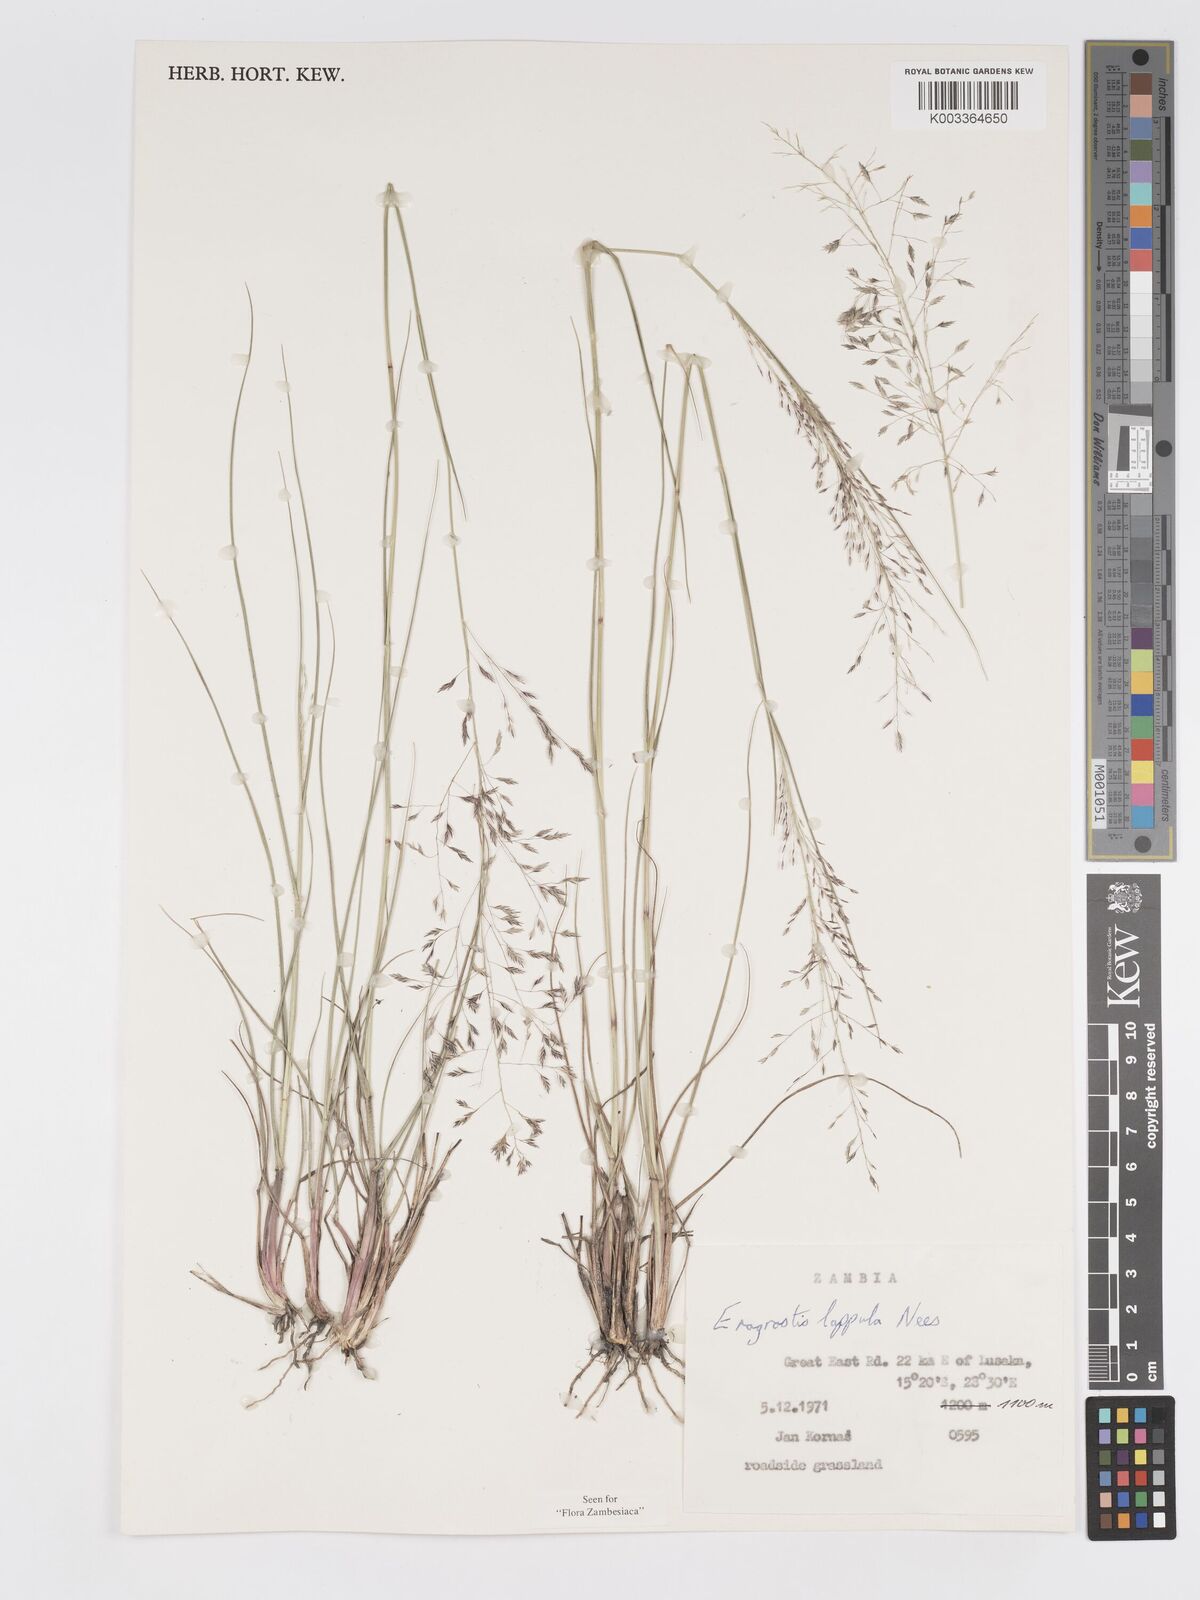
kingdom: Plantae
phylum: Tracheophyta
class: Liliopsida
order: Poales
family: Poaceae
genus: Eragrostis
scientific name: Eragrostis lappula
